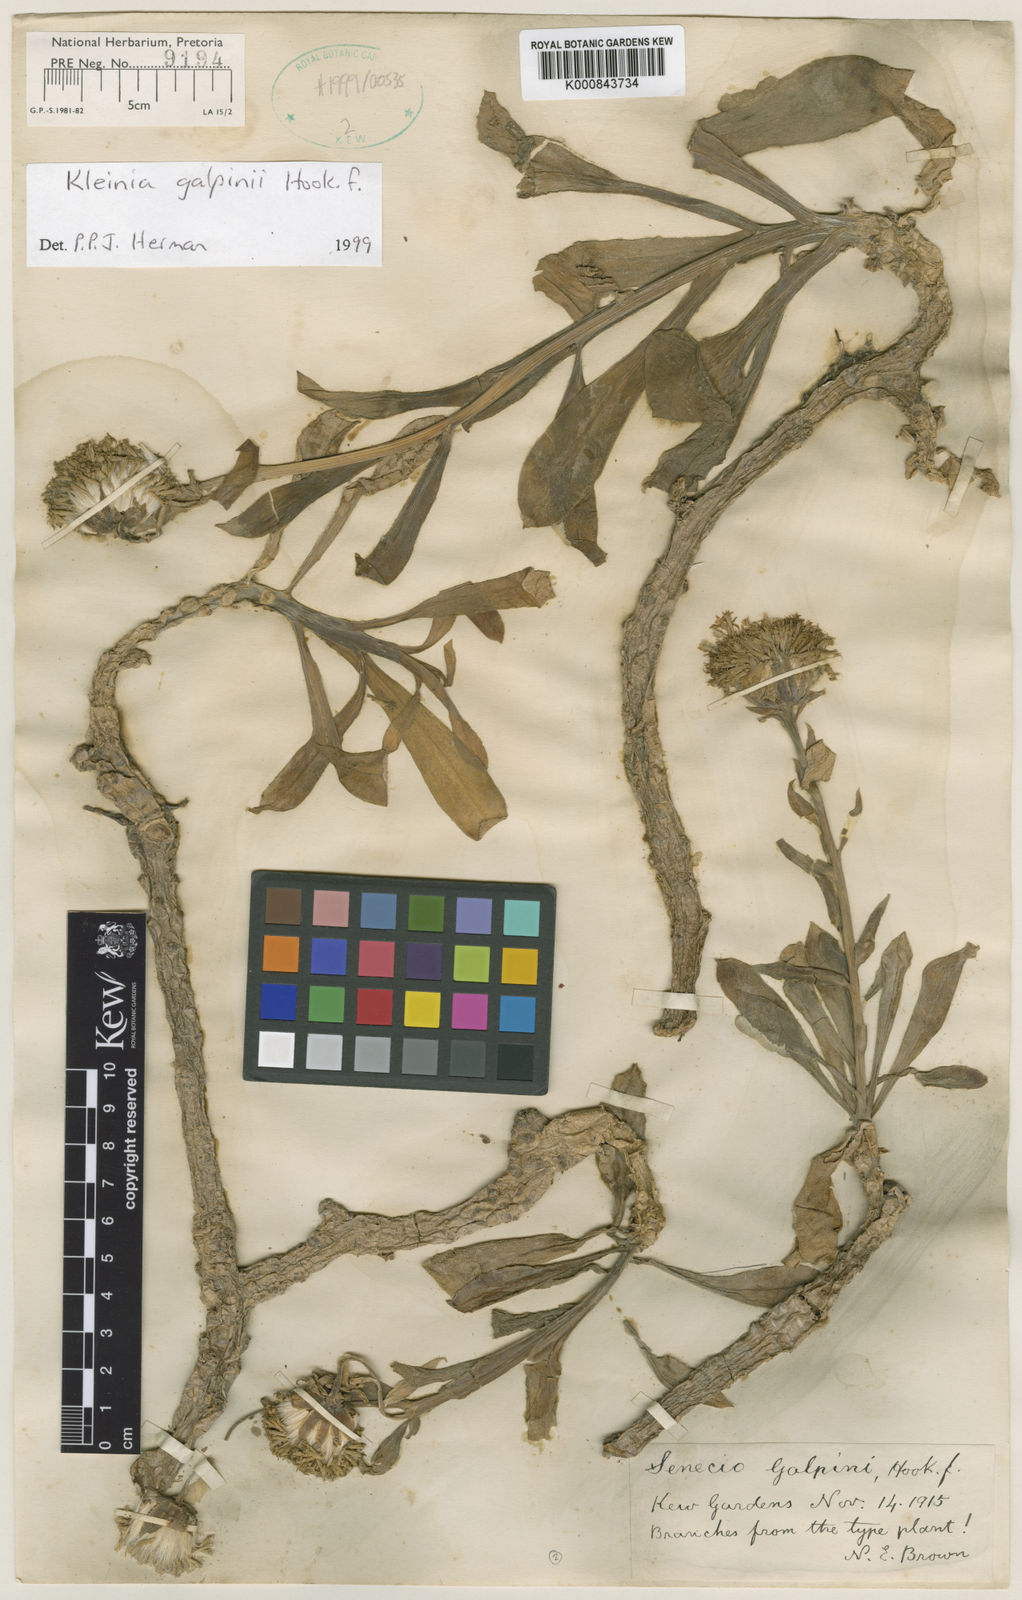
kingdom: Plantae
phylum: Tracheophyta
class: Magnoliopsida
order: Asterales
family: Asteraceae
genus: Kleinia
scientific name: Kleinia
